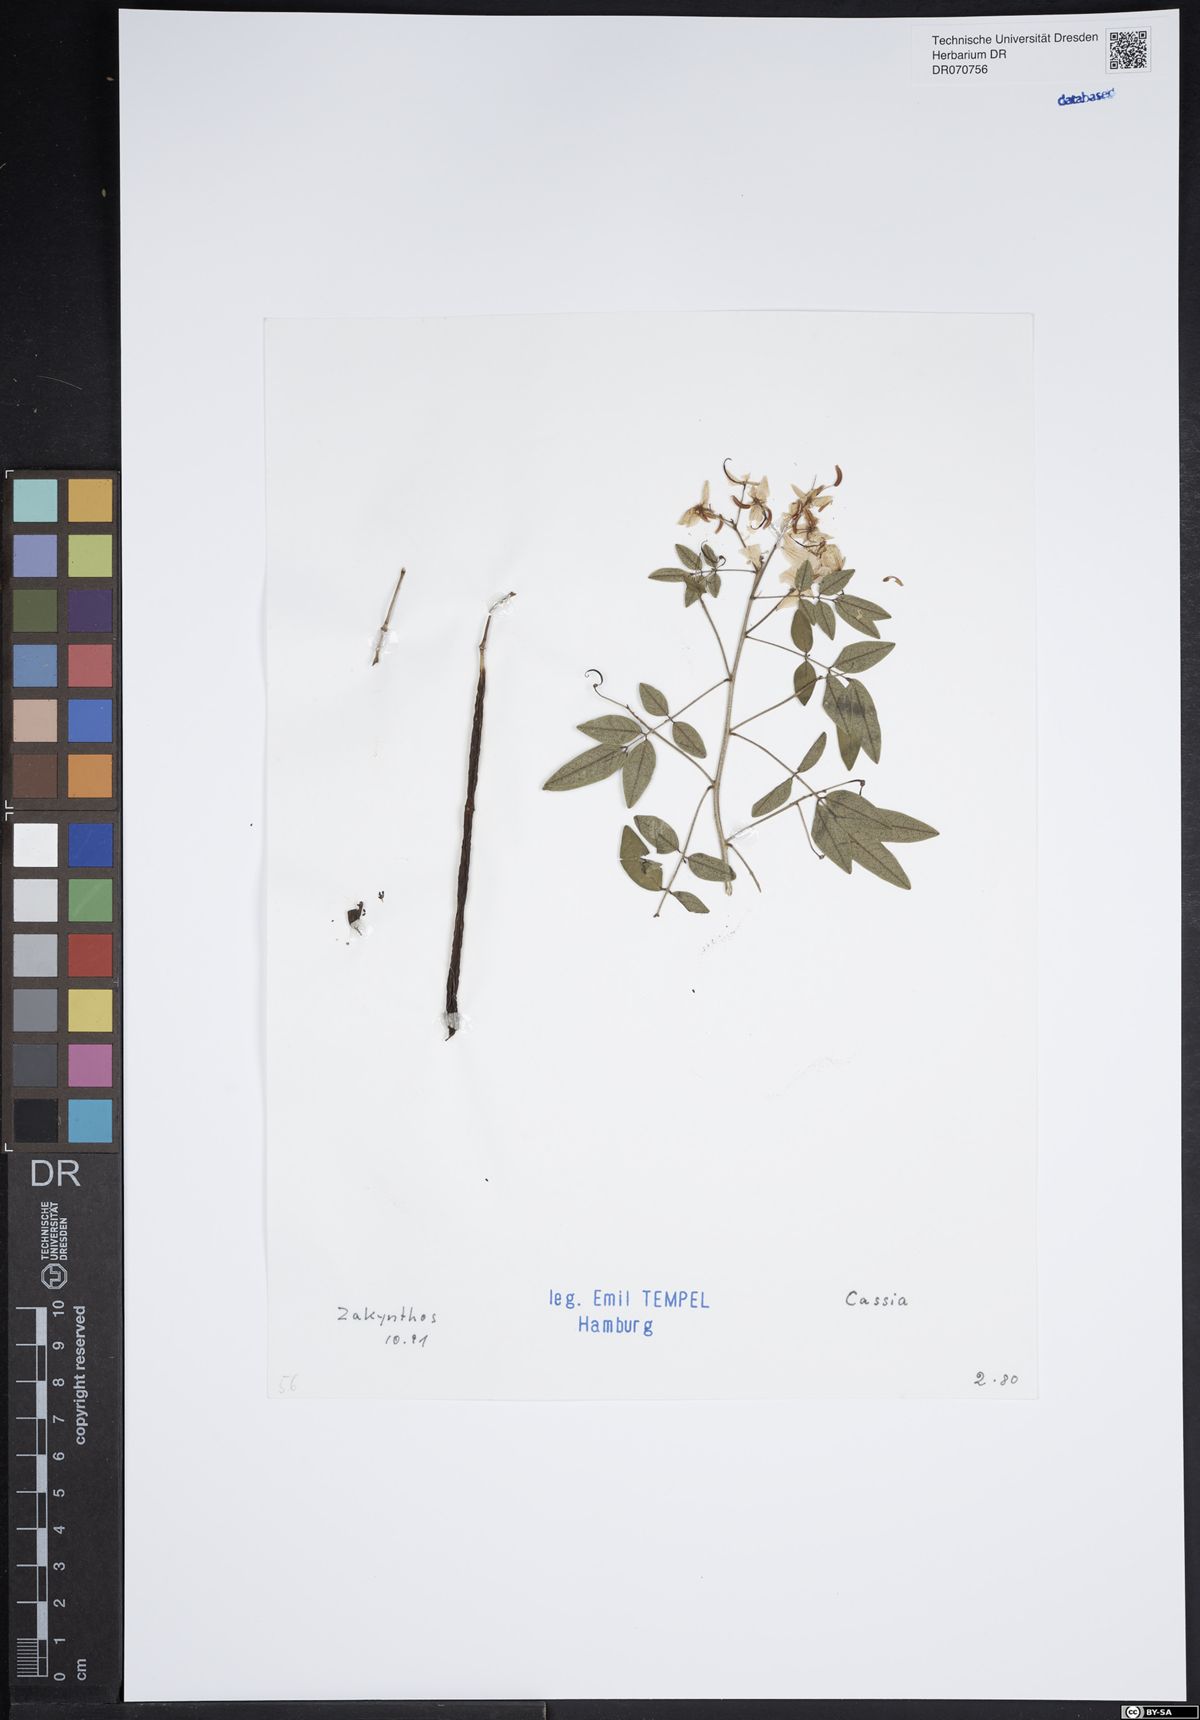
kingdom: Plantae
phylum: Tracheophyta
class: Magnoliopsida
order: Fabales
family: Fabaceae
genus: Cassia
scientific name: Cassia
